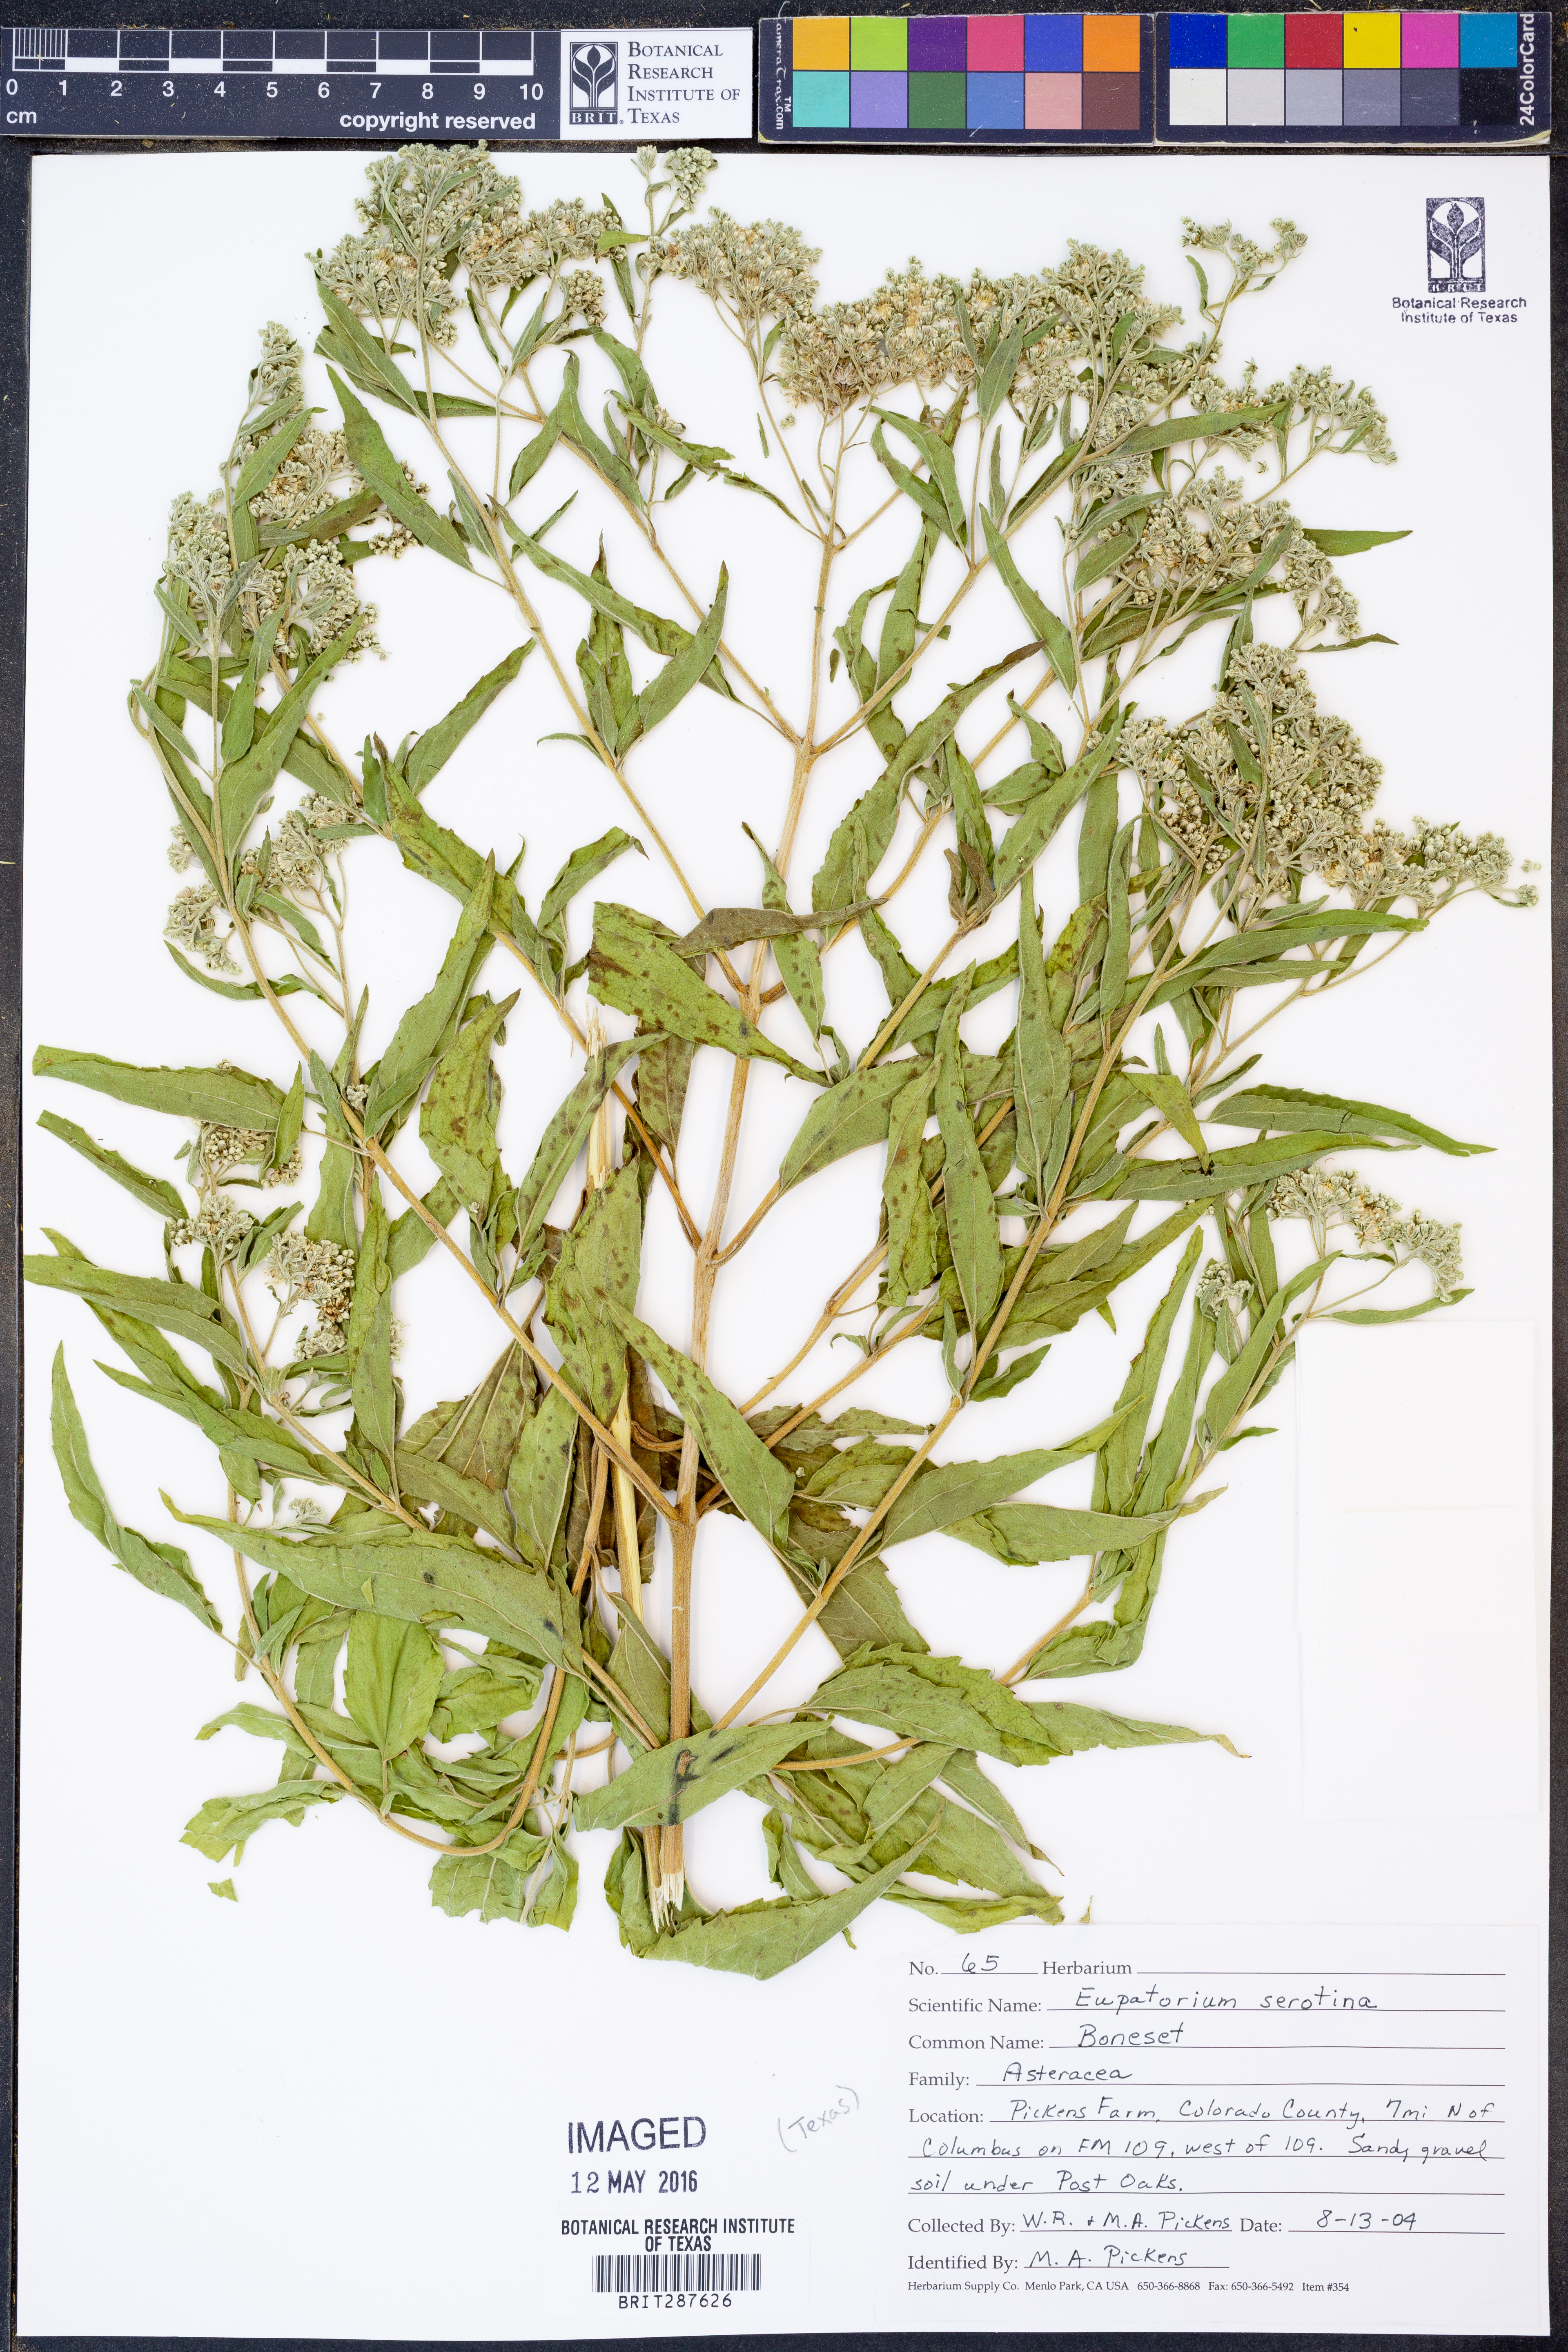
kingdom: Plantae
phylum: Tracheophyta
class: Magnoliopsida
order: Asterales
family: Asteraceae
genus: Eupatorium
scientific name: Eupatorium serotinum
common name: Late boneset
